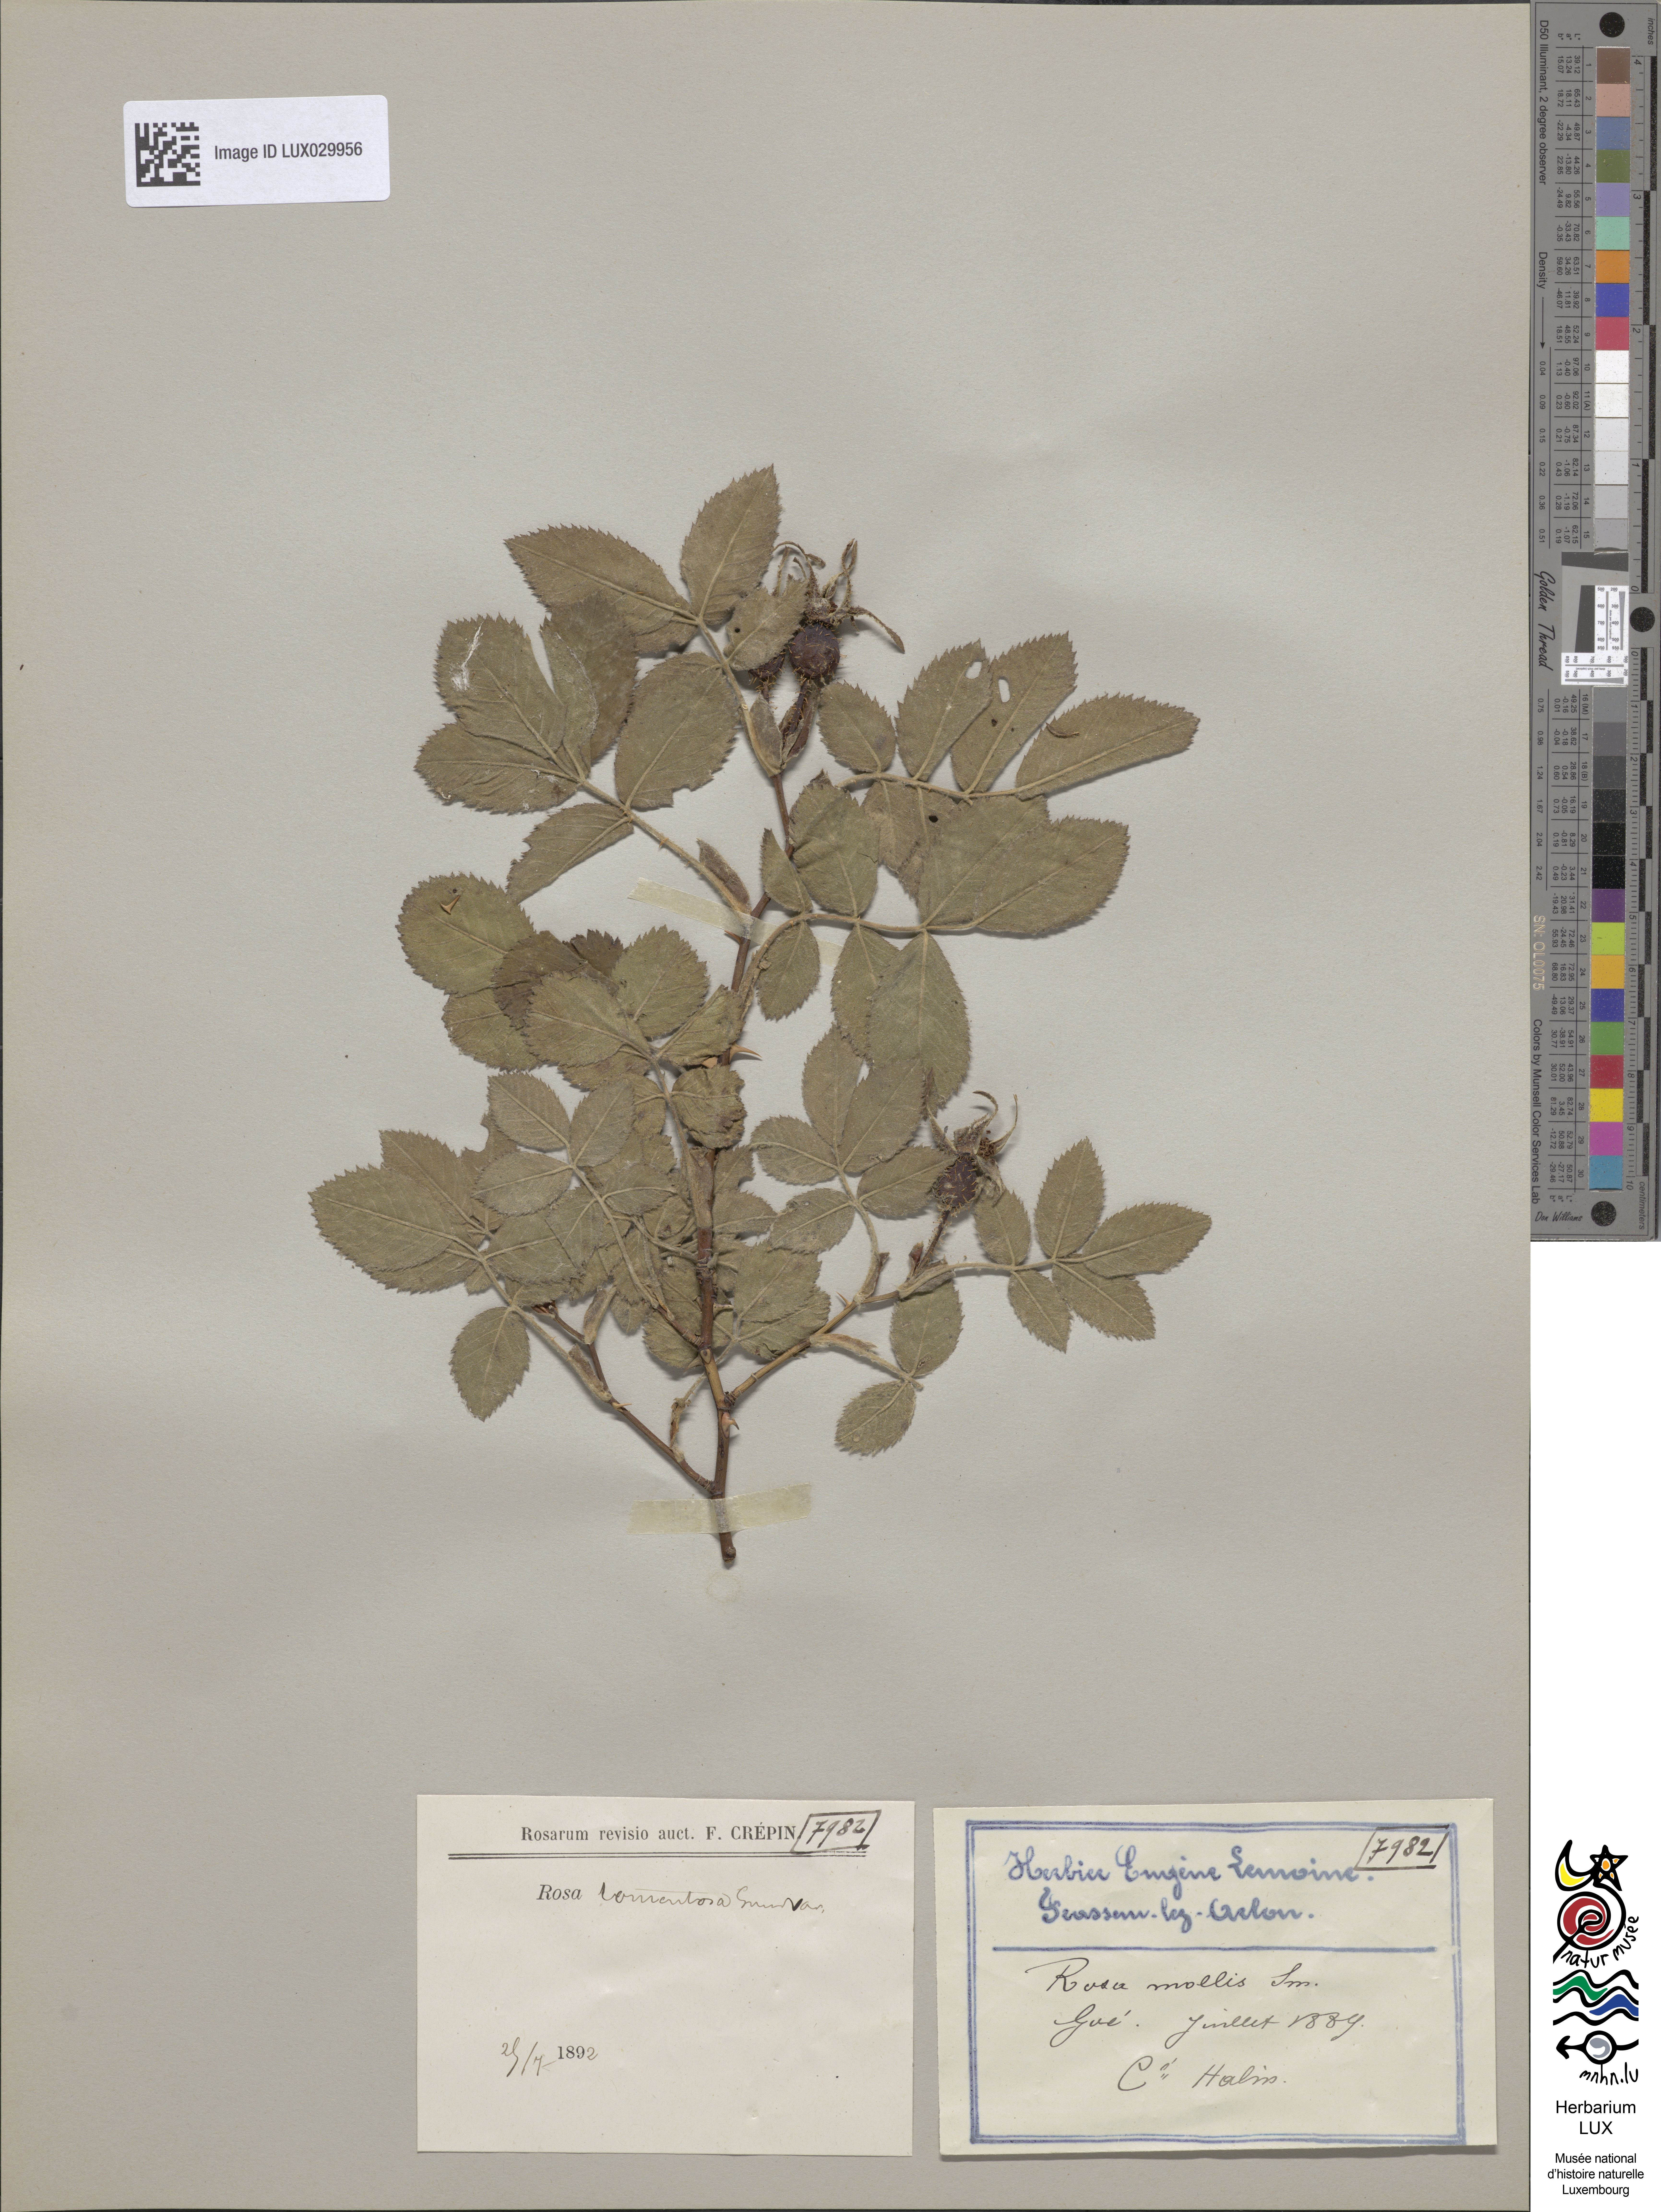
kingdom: Plantae
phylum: Tracheophyta
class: Magnoliopsida
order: Rosales
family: Rosaceae
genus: Rosa
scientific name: Rosa tomentosa
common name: Downy rose
